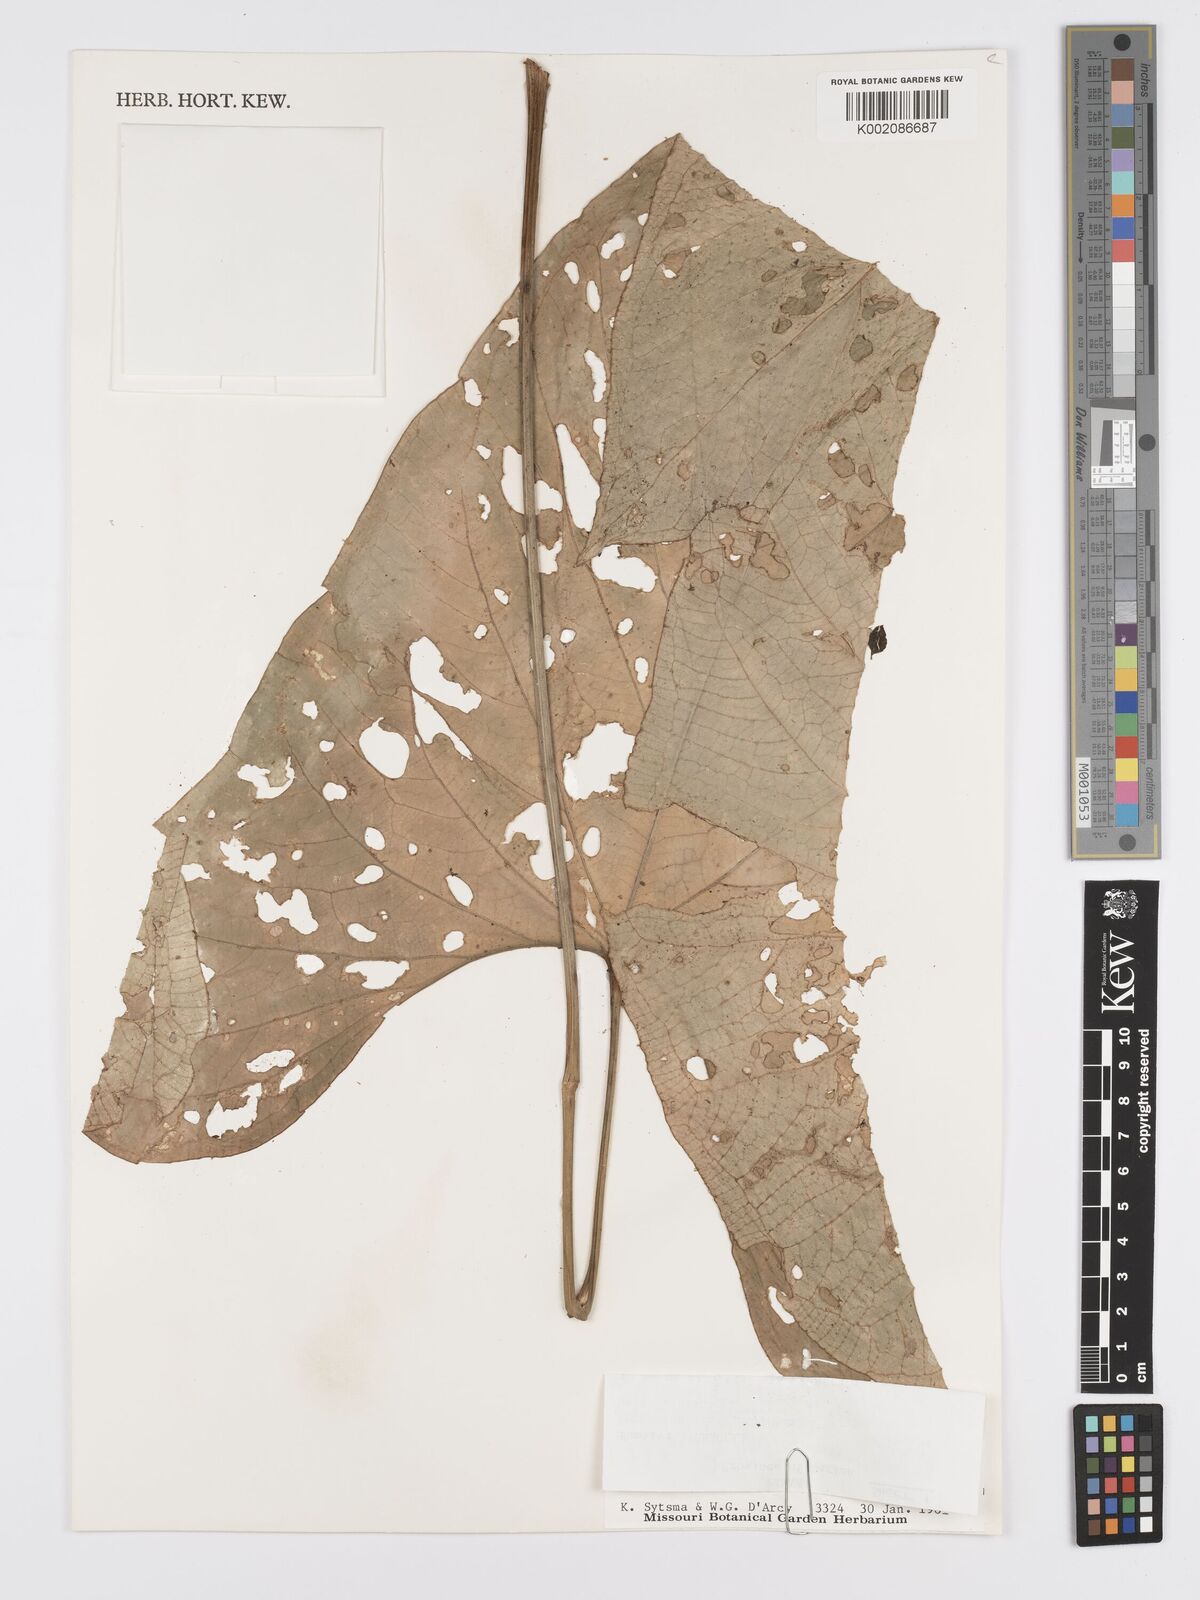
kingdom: Plantae
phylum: Tracheophyta
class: Liliopsida
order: Alismatales
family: Araceae
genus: Anthurium
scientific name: Anthurium ochranthum
